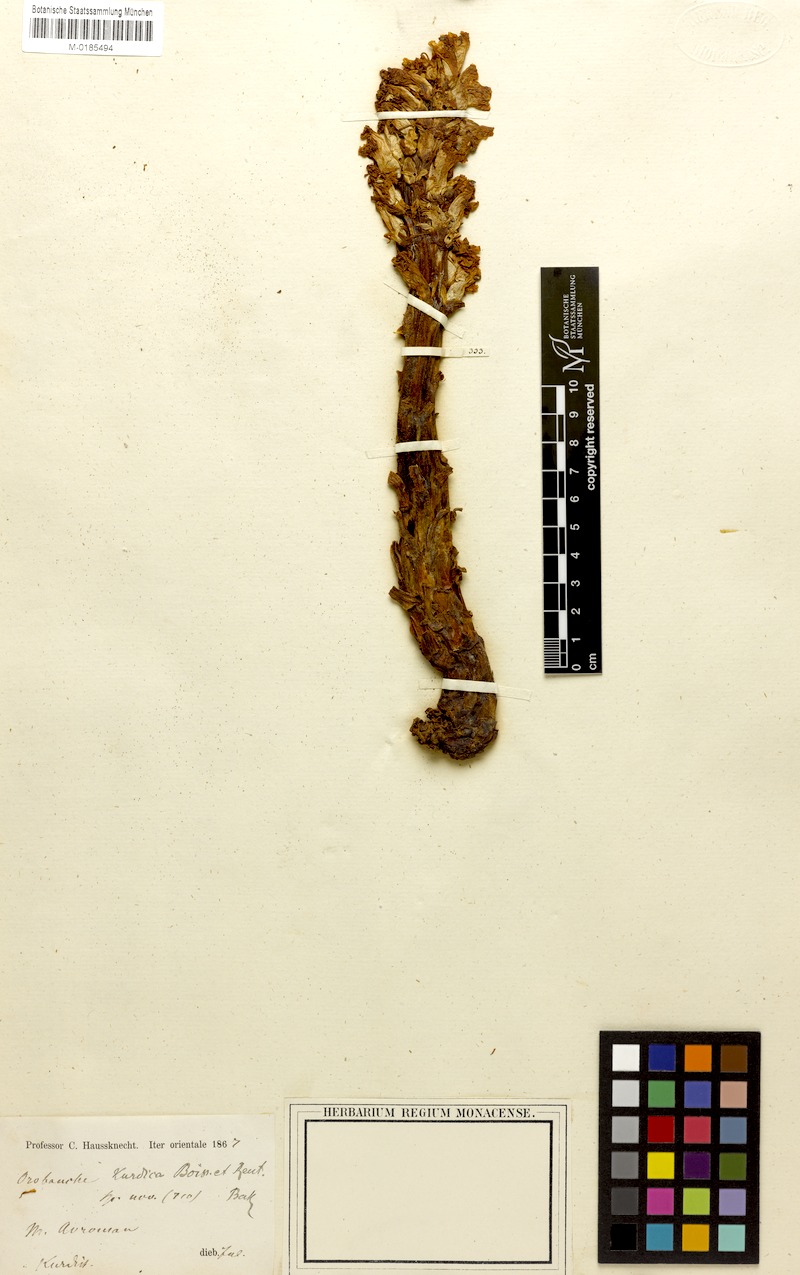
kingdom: Plantae
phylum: Tracheophyta
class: Magnoliopsida
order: Lamiales
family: Orobanchaceae
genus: Orobanche
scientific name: Orobanche kurdica
